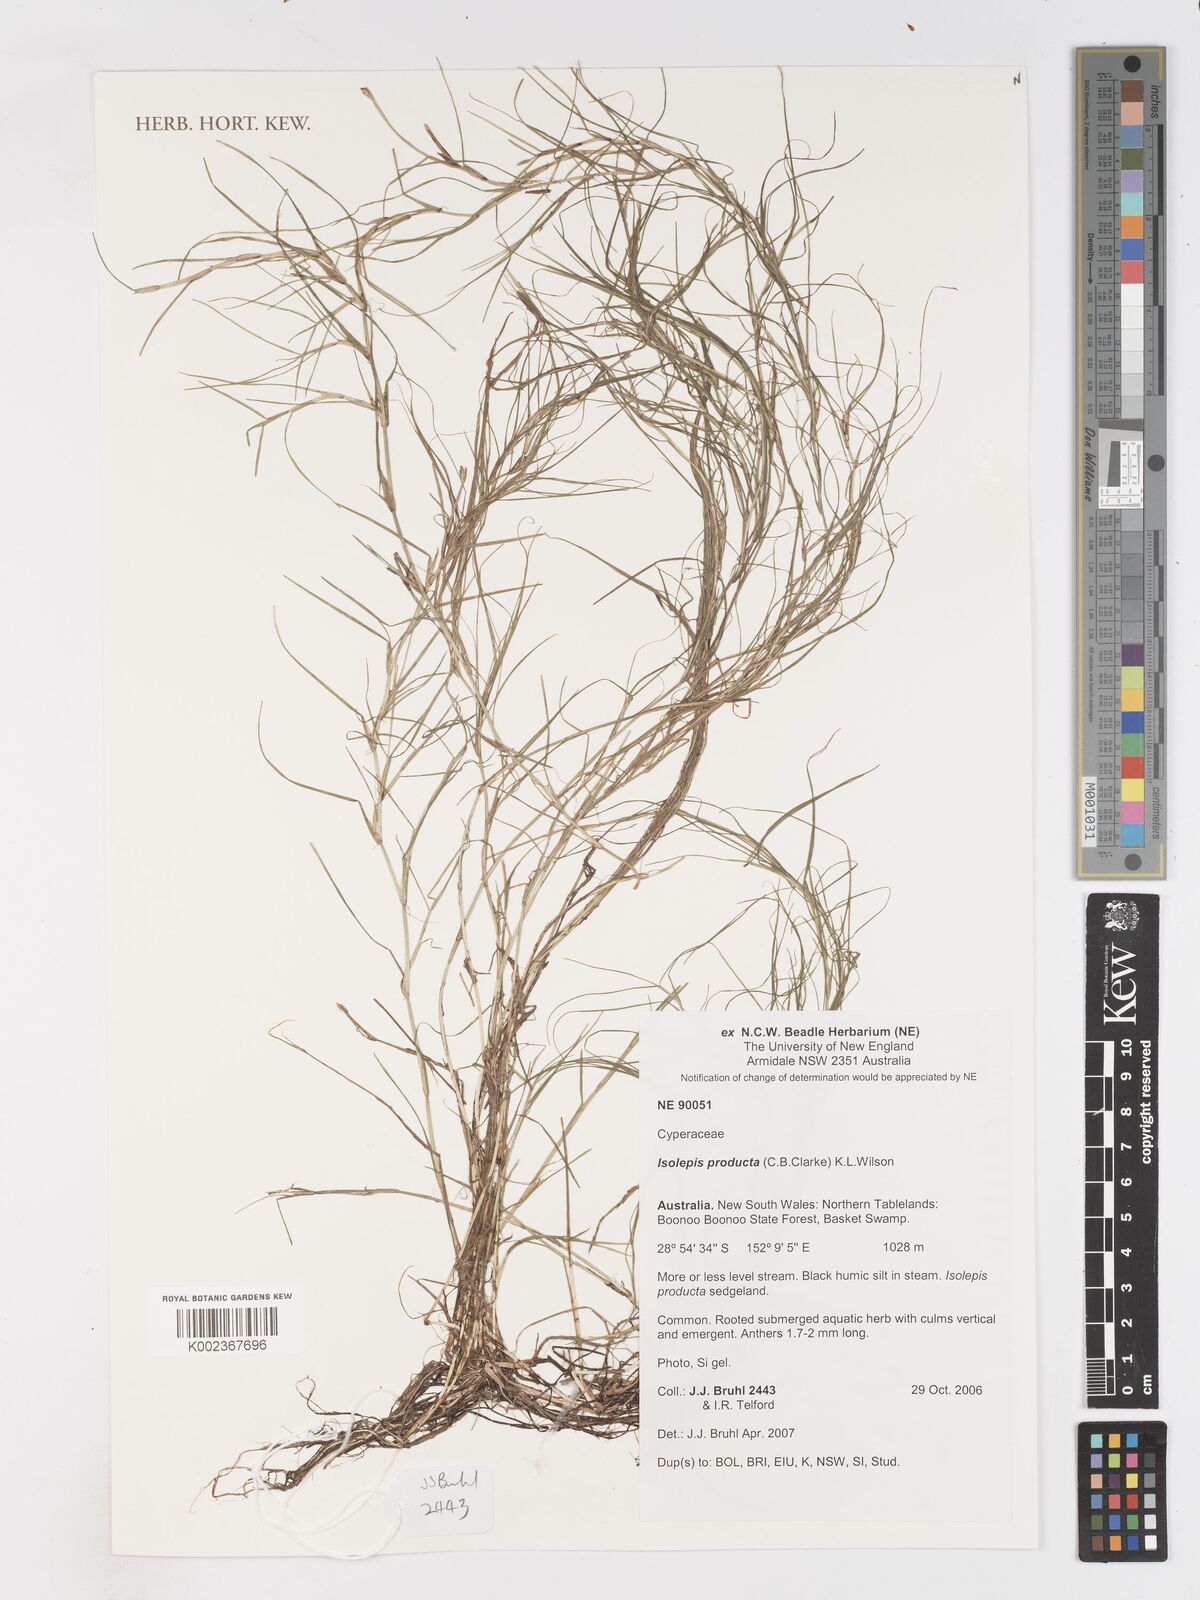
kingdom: Plantae
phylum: Tracheophyta
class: Liliopsida
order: Poales
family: Cyperaceae
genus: Isolepis
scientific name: Isolepis producta
